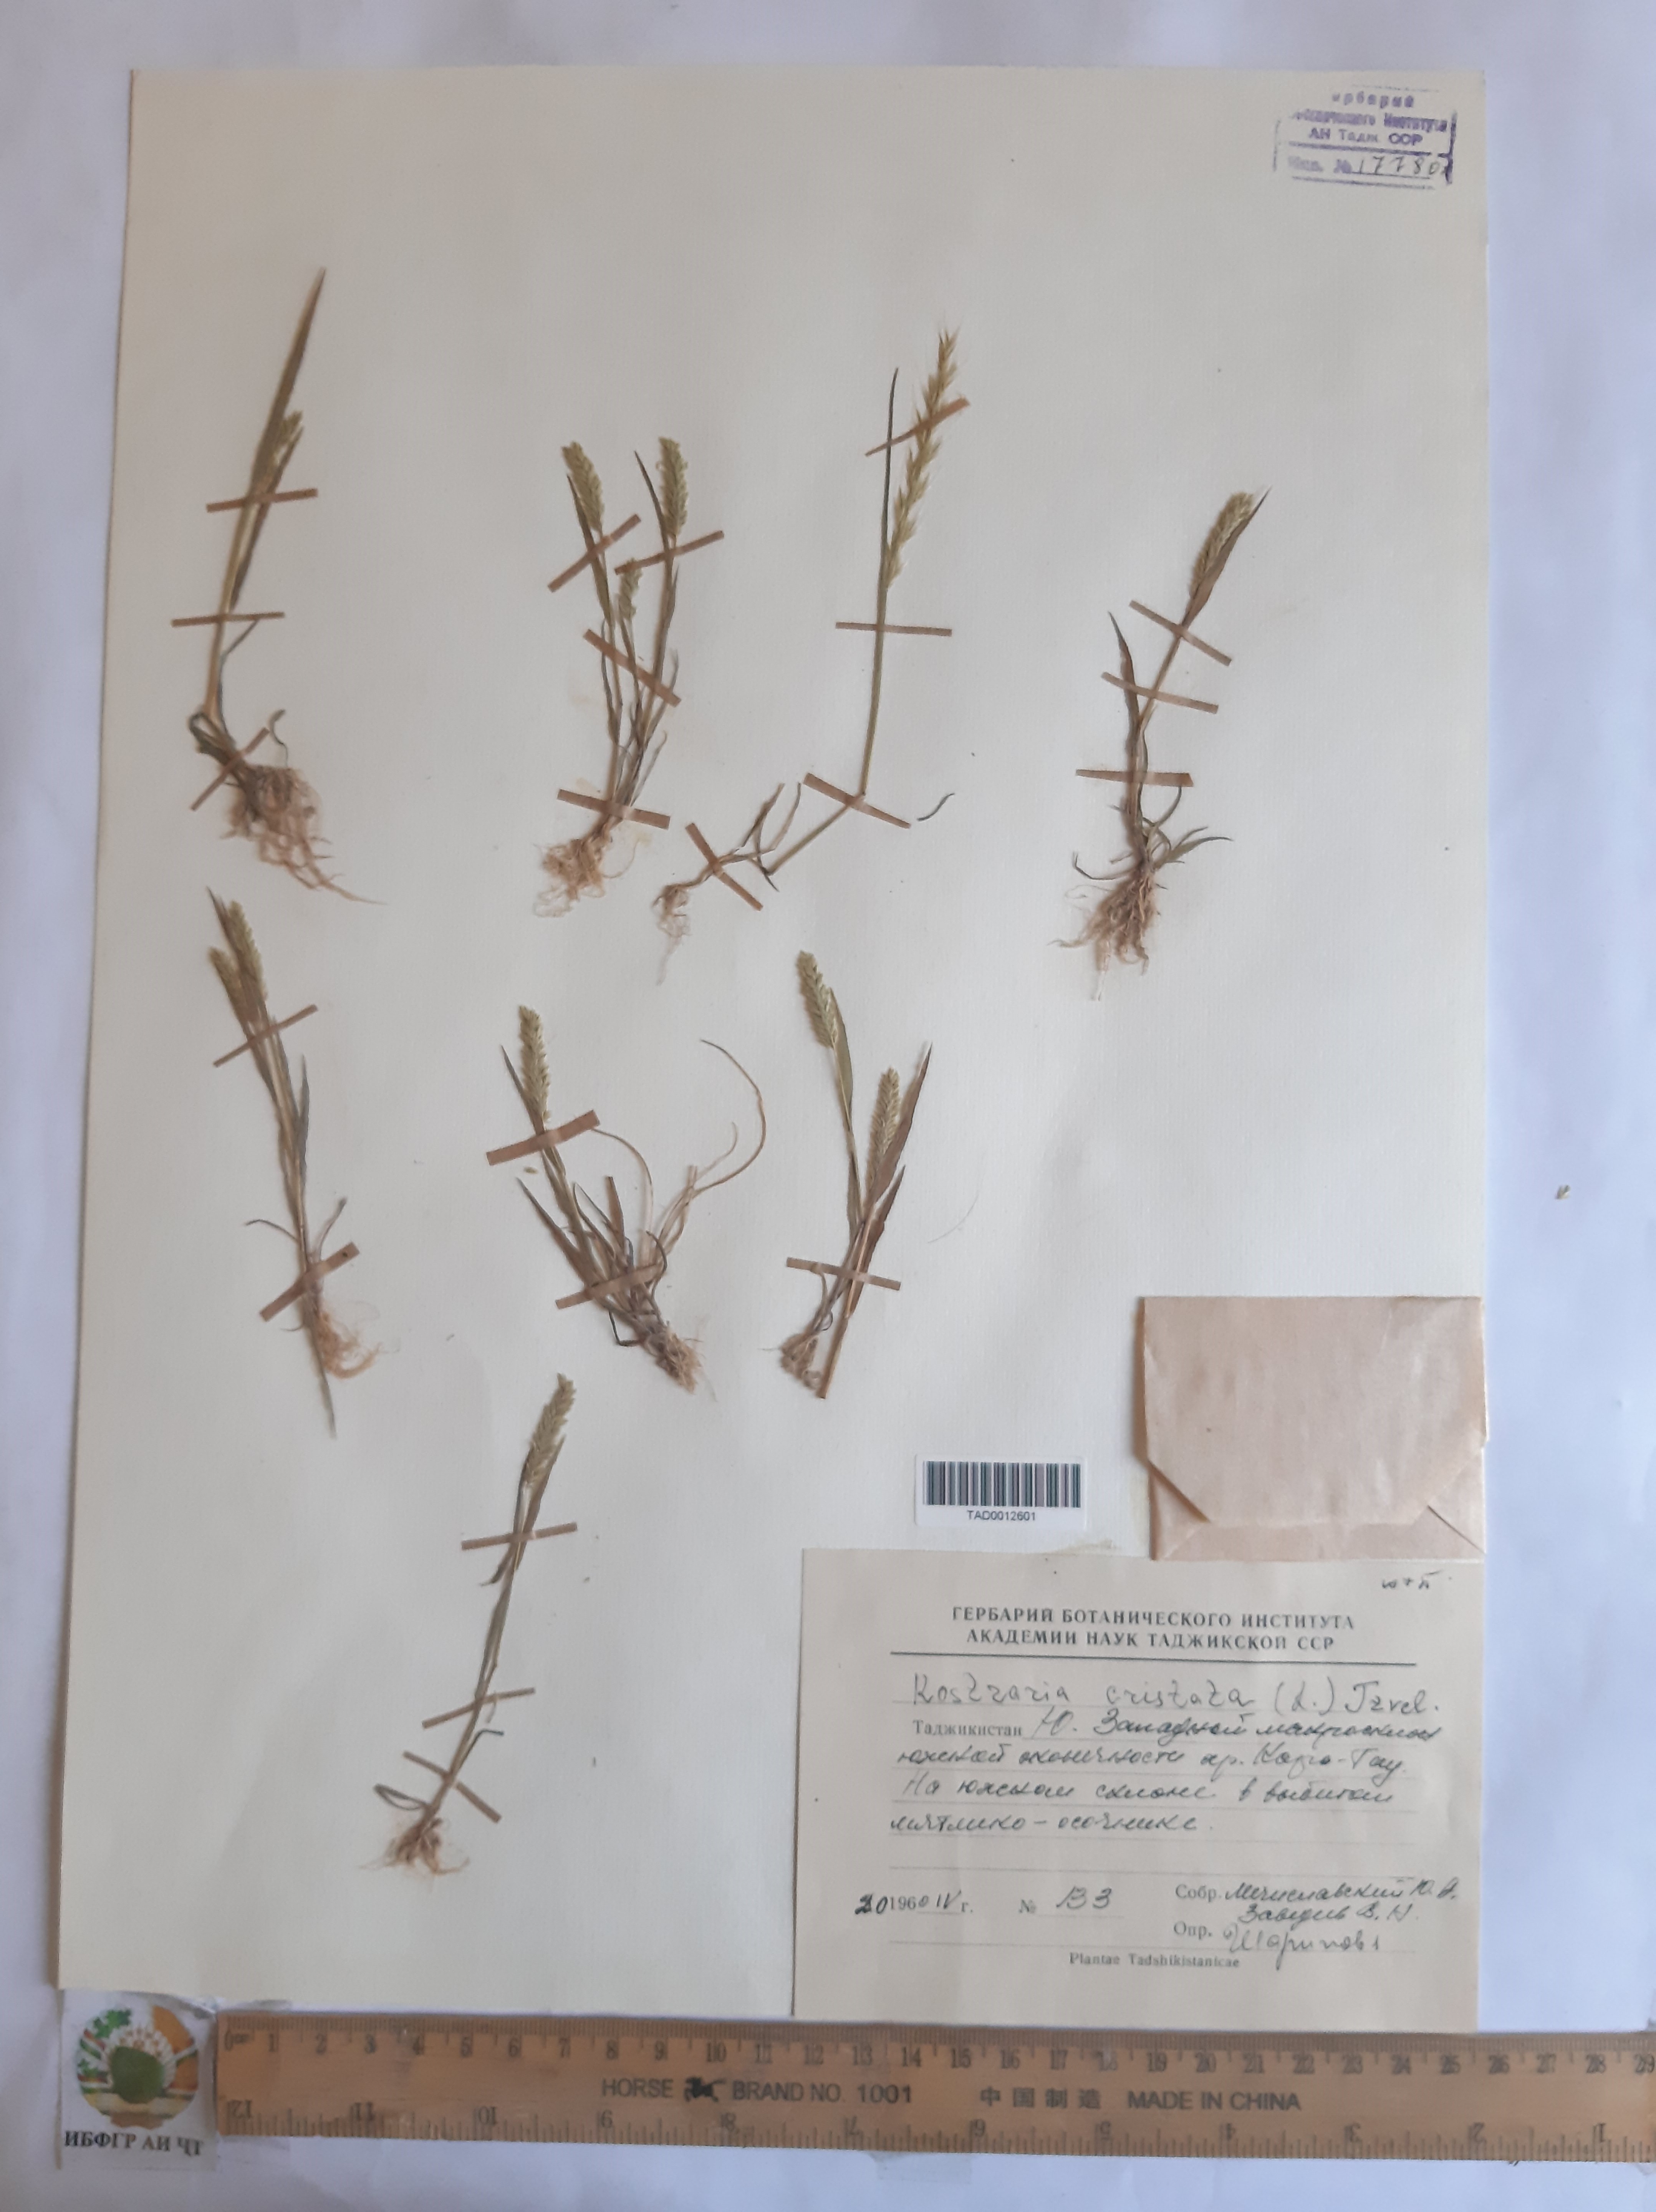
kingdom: Plantae
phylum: Tracheophyta
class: Liliopsida
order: Poales
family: Poaceae
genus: Rostraria
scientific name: Rostraria cristata
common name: Mediterranean hair-grass
